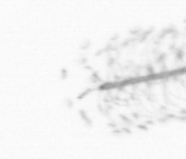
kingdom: Chromista
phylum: Ochrophyta
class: Bacillariophyceae
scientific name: Bacillariophyceae
